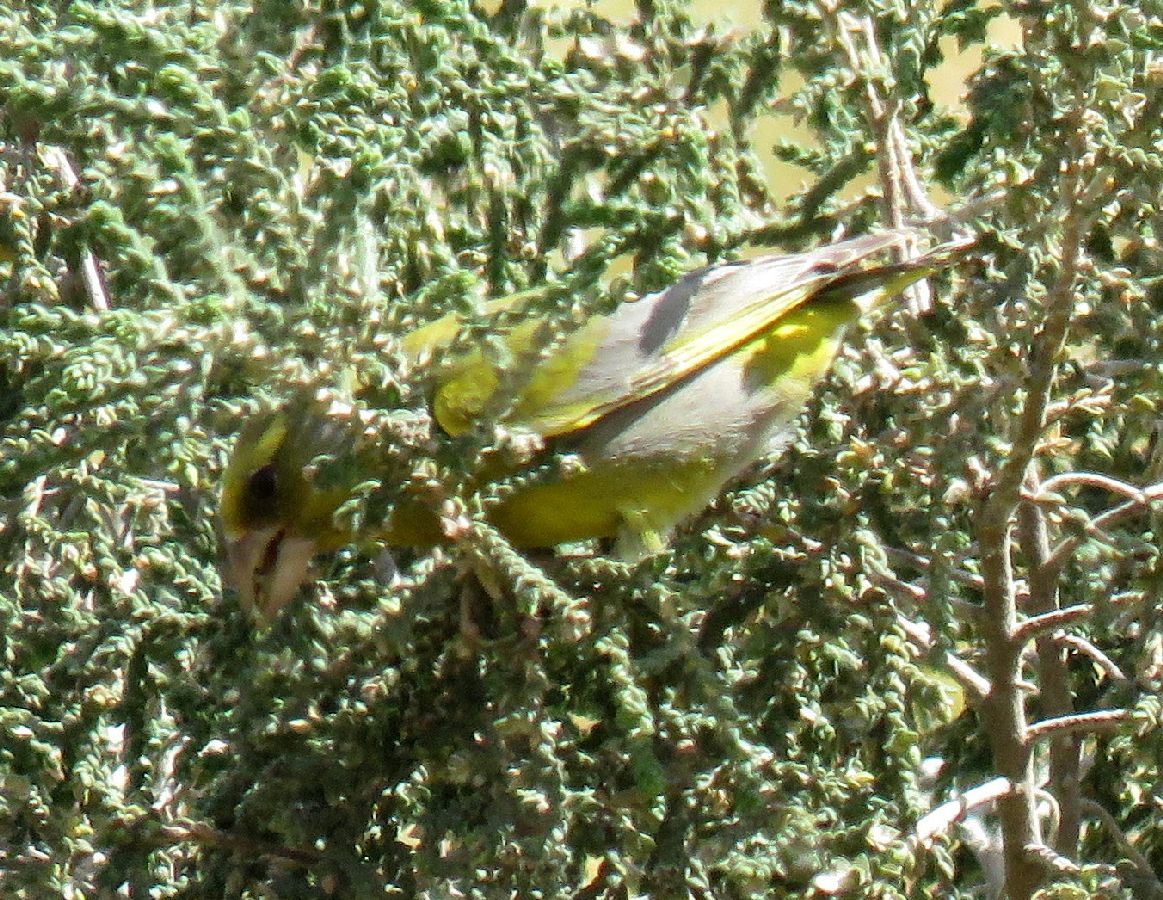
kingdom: Plantae
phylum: Tracheophyta
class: Liliopsida
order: Poales
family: Poaceae
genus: Chloris
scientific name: Chloris chloris
